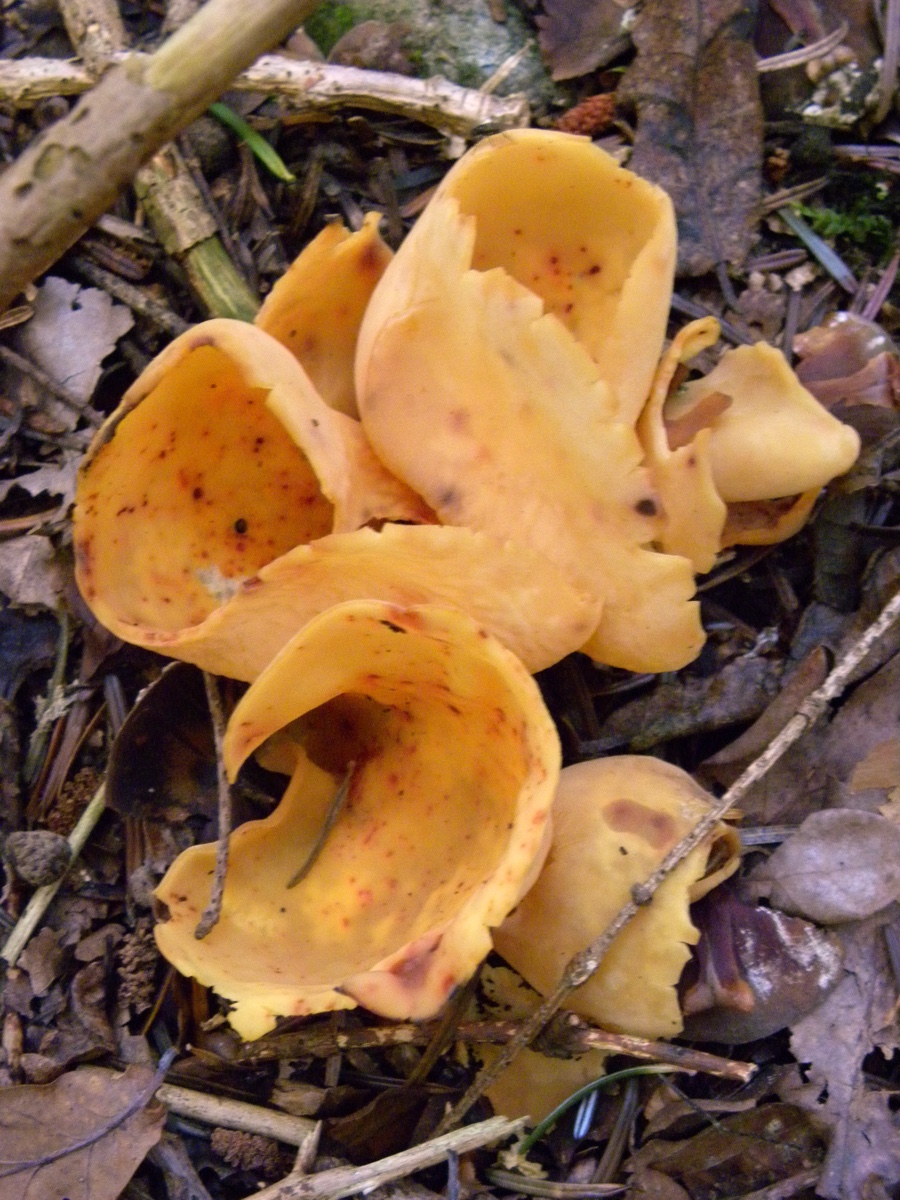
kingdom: Fungi
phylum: Ascomycota
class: Pezizomycetes
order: Pezizales
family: Otideaceae
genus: Otidea
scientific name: Otidea onotica
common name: æsel-ørebæger
